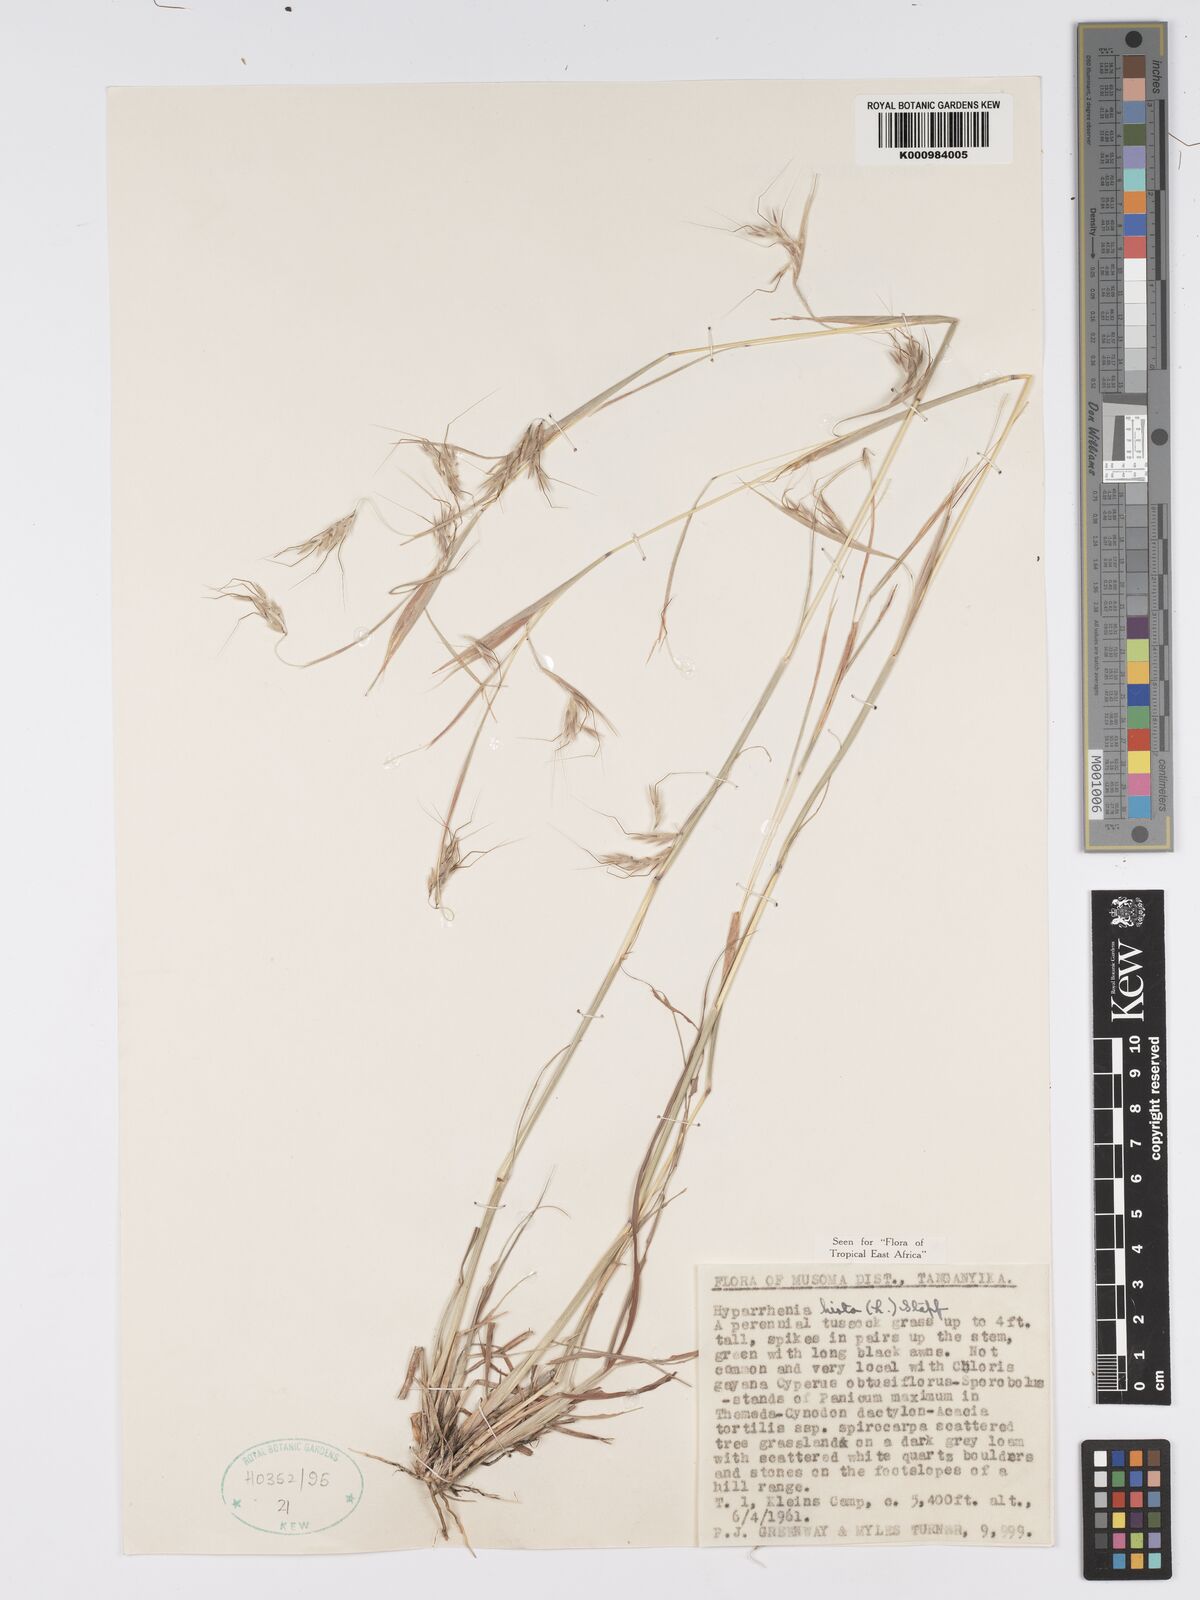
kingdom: Plantae
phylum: Tracheophyta
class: Liliopsida
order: Poales
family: Poaceae
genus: Hyparrhenia
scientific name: Hyparrhenia hirta
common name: Thatching grass
